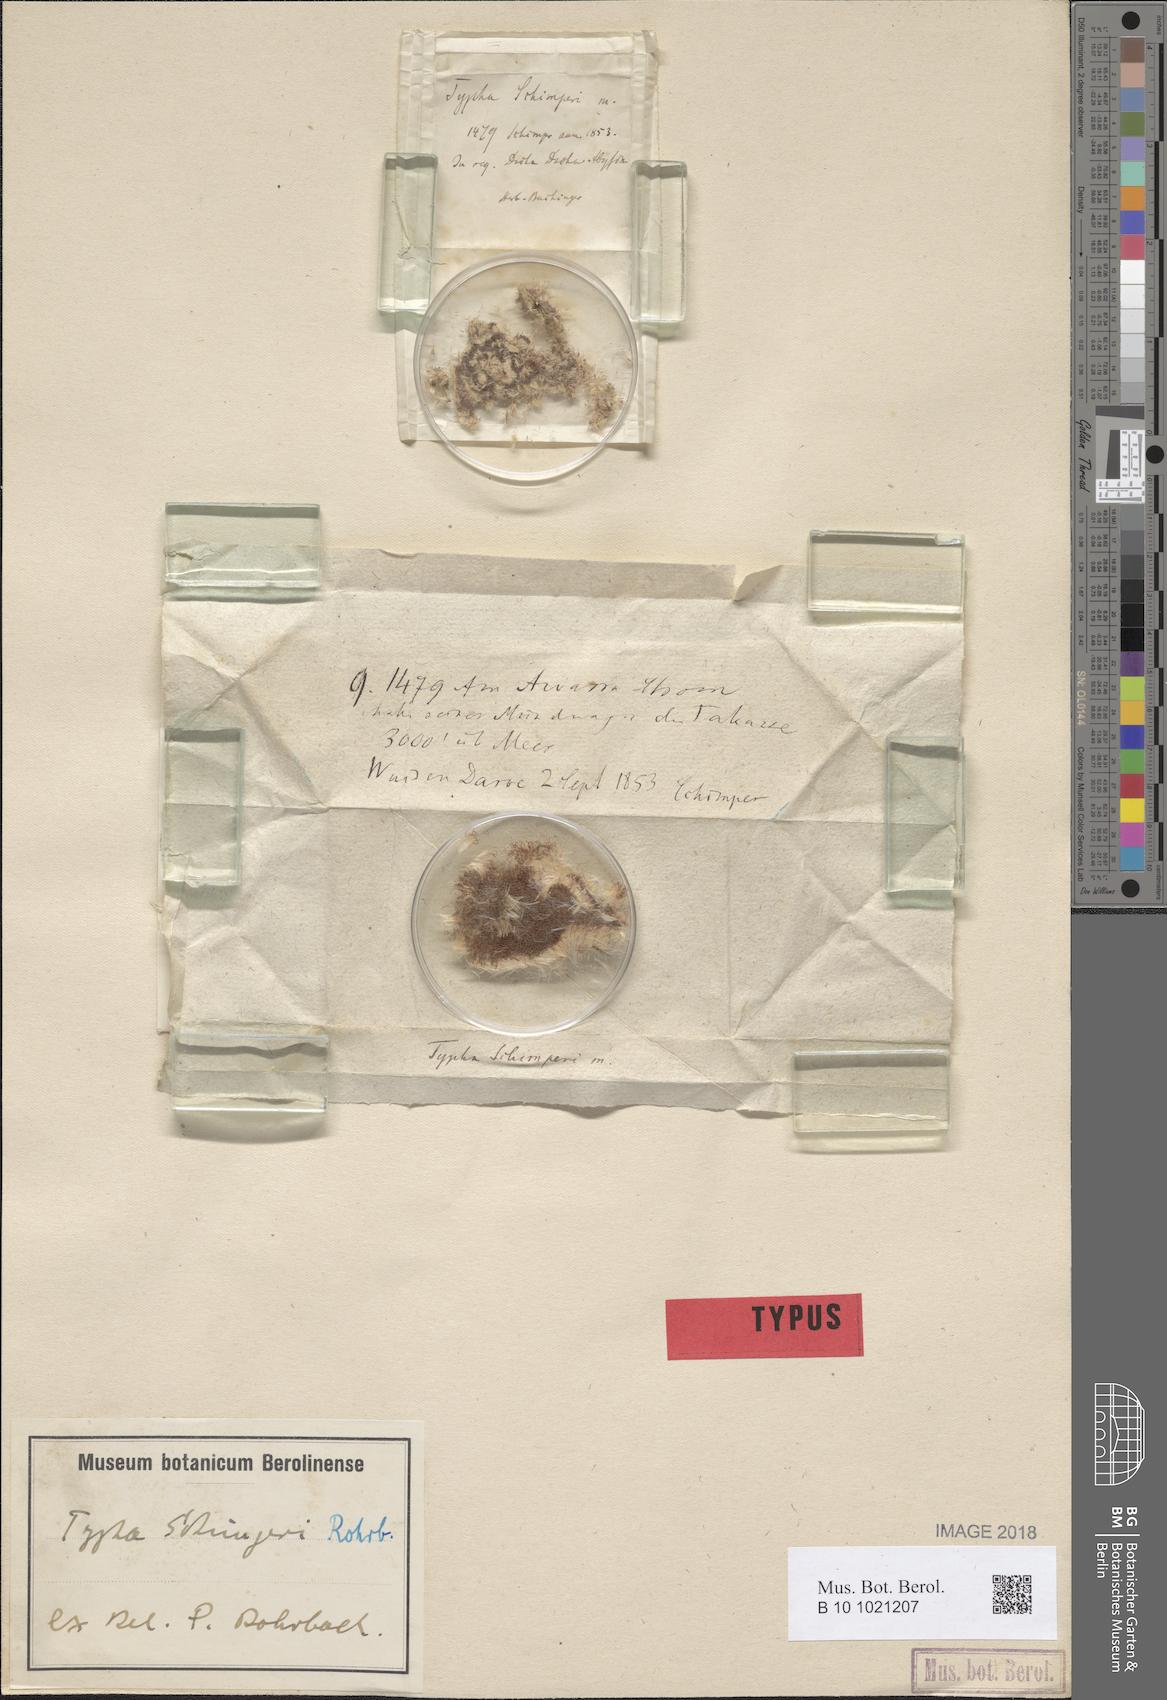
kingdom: Plantae
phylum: Tracheophyta
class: Liliopsida
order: Poales
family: Typhaceae
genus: Typha
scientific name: Typha elephantina
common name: Indian reed-grass
